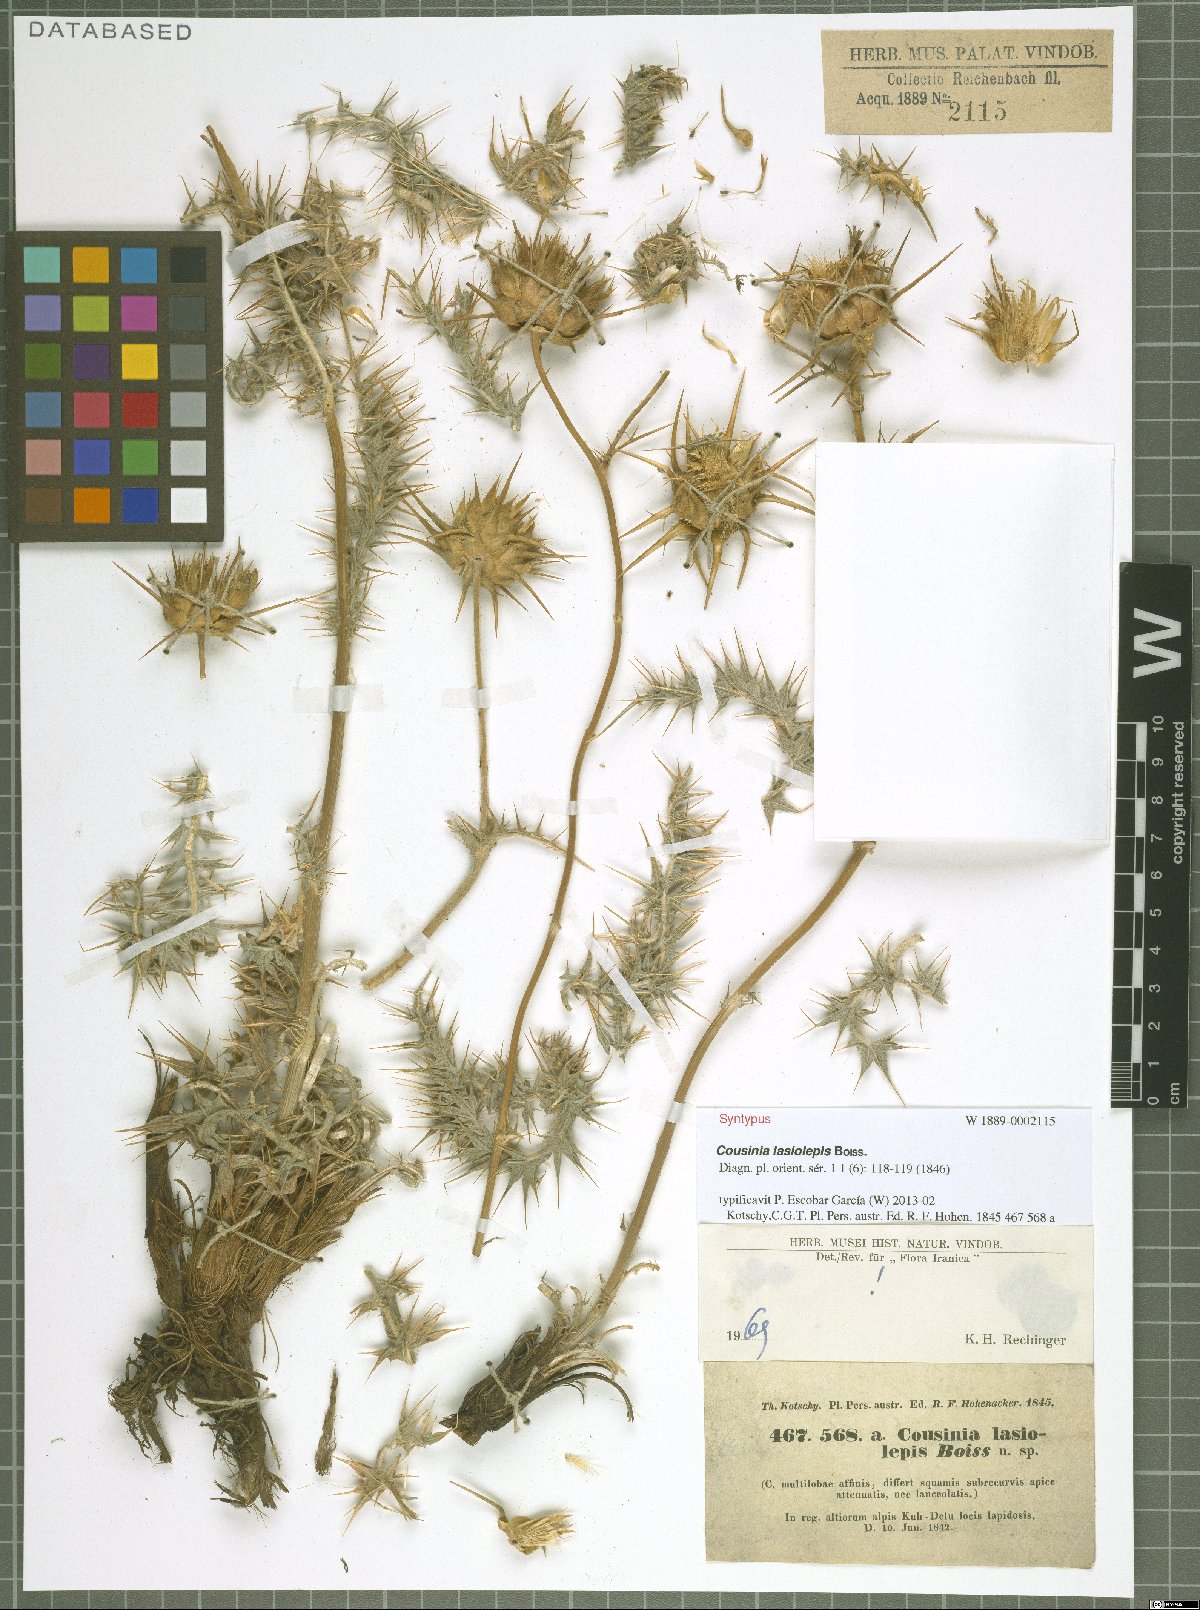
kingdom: Plantae
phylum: Tracheophyta
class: Magnoliopsida
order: Asterales
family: Asteraceae
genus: Cousinia
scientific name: Cousinia lasiolepis
